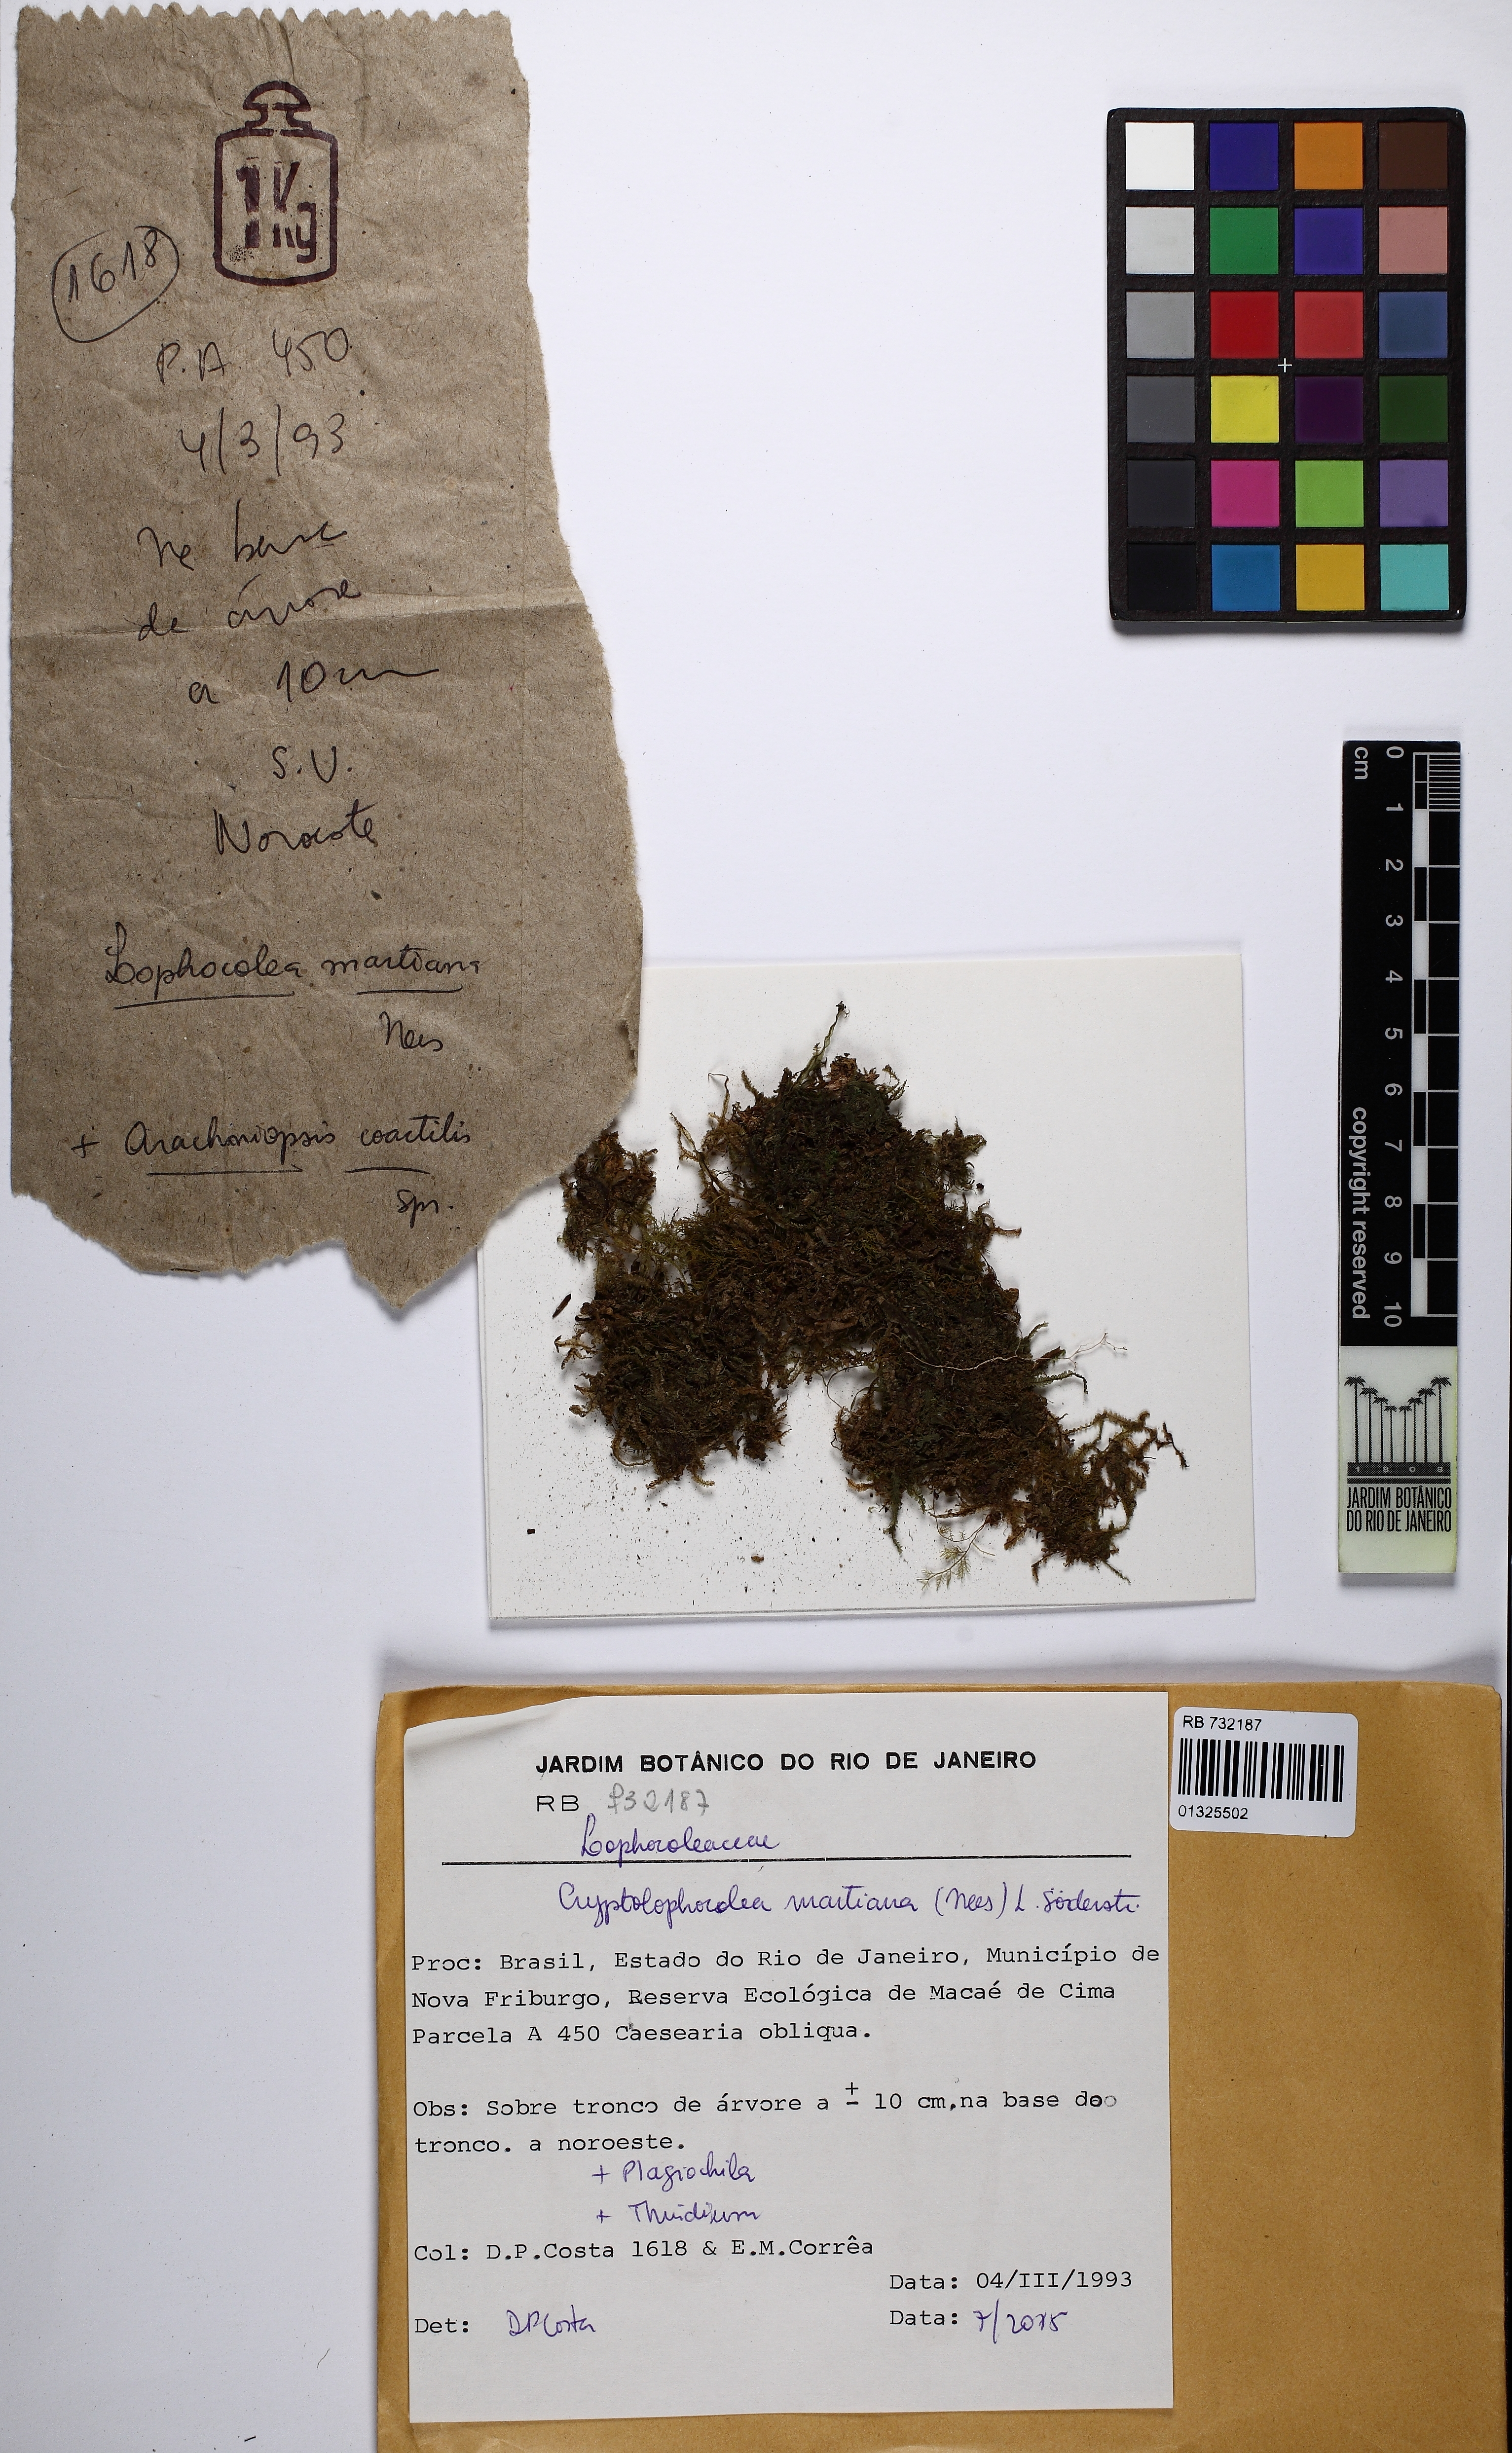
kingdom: Plantae
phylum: Marchantiophyta
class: Jungermanniopsida
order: Jungermanniales
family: Lophocoleaceae
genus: Cryptolophocolea
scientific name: Cryptolophocolea martiana
